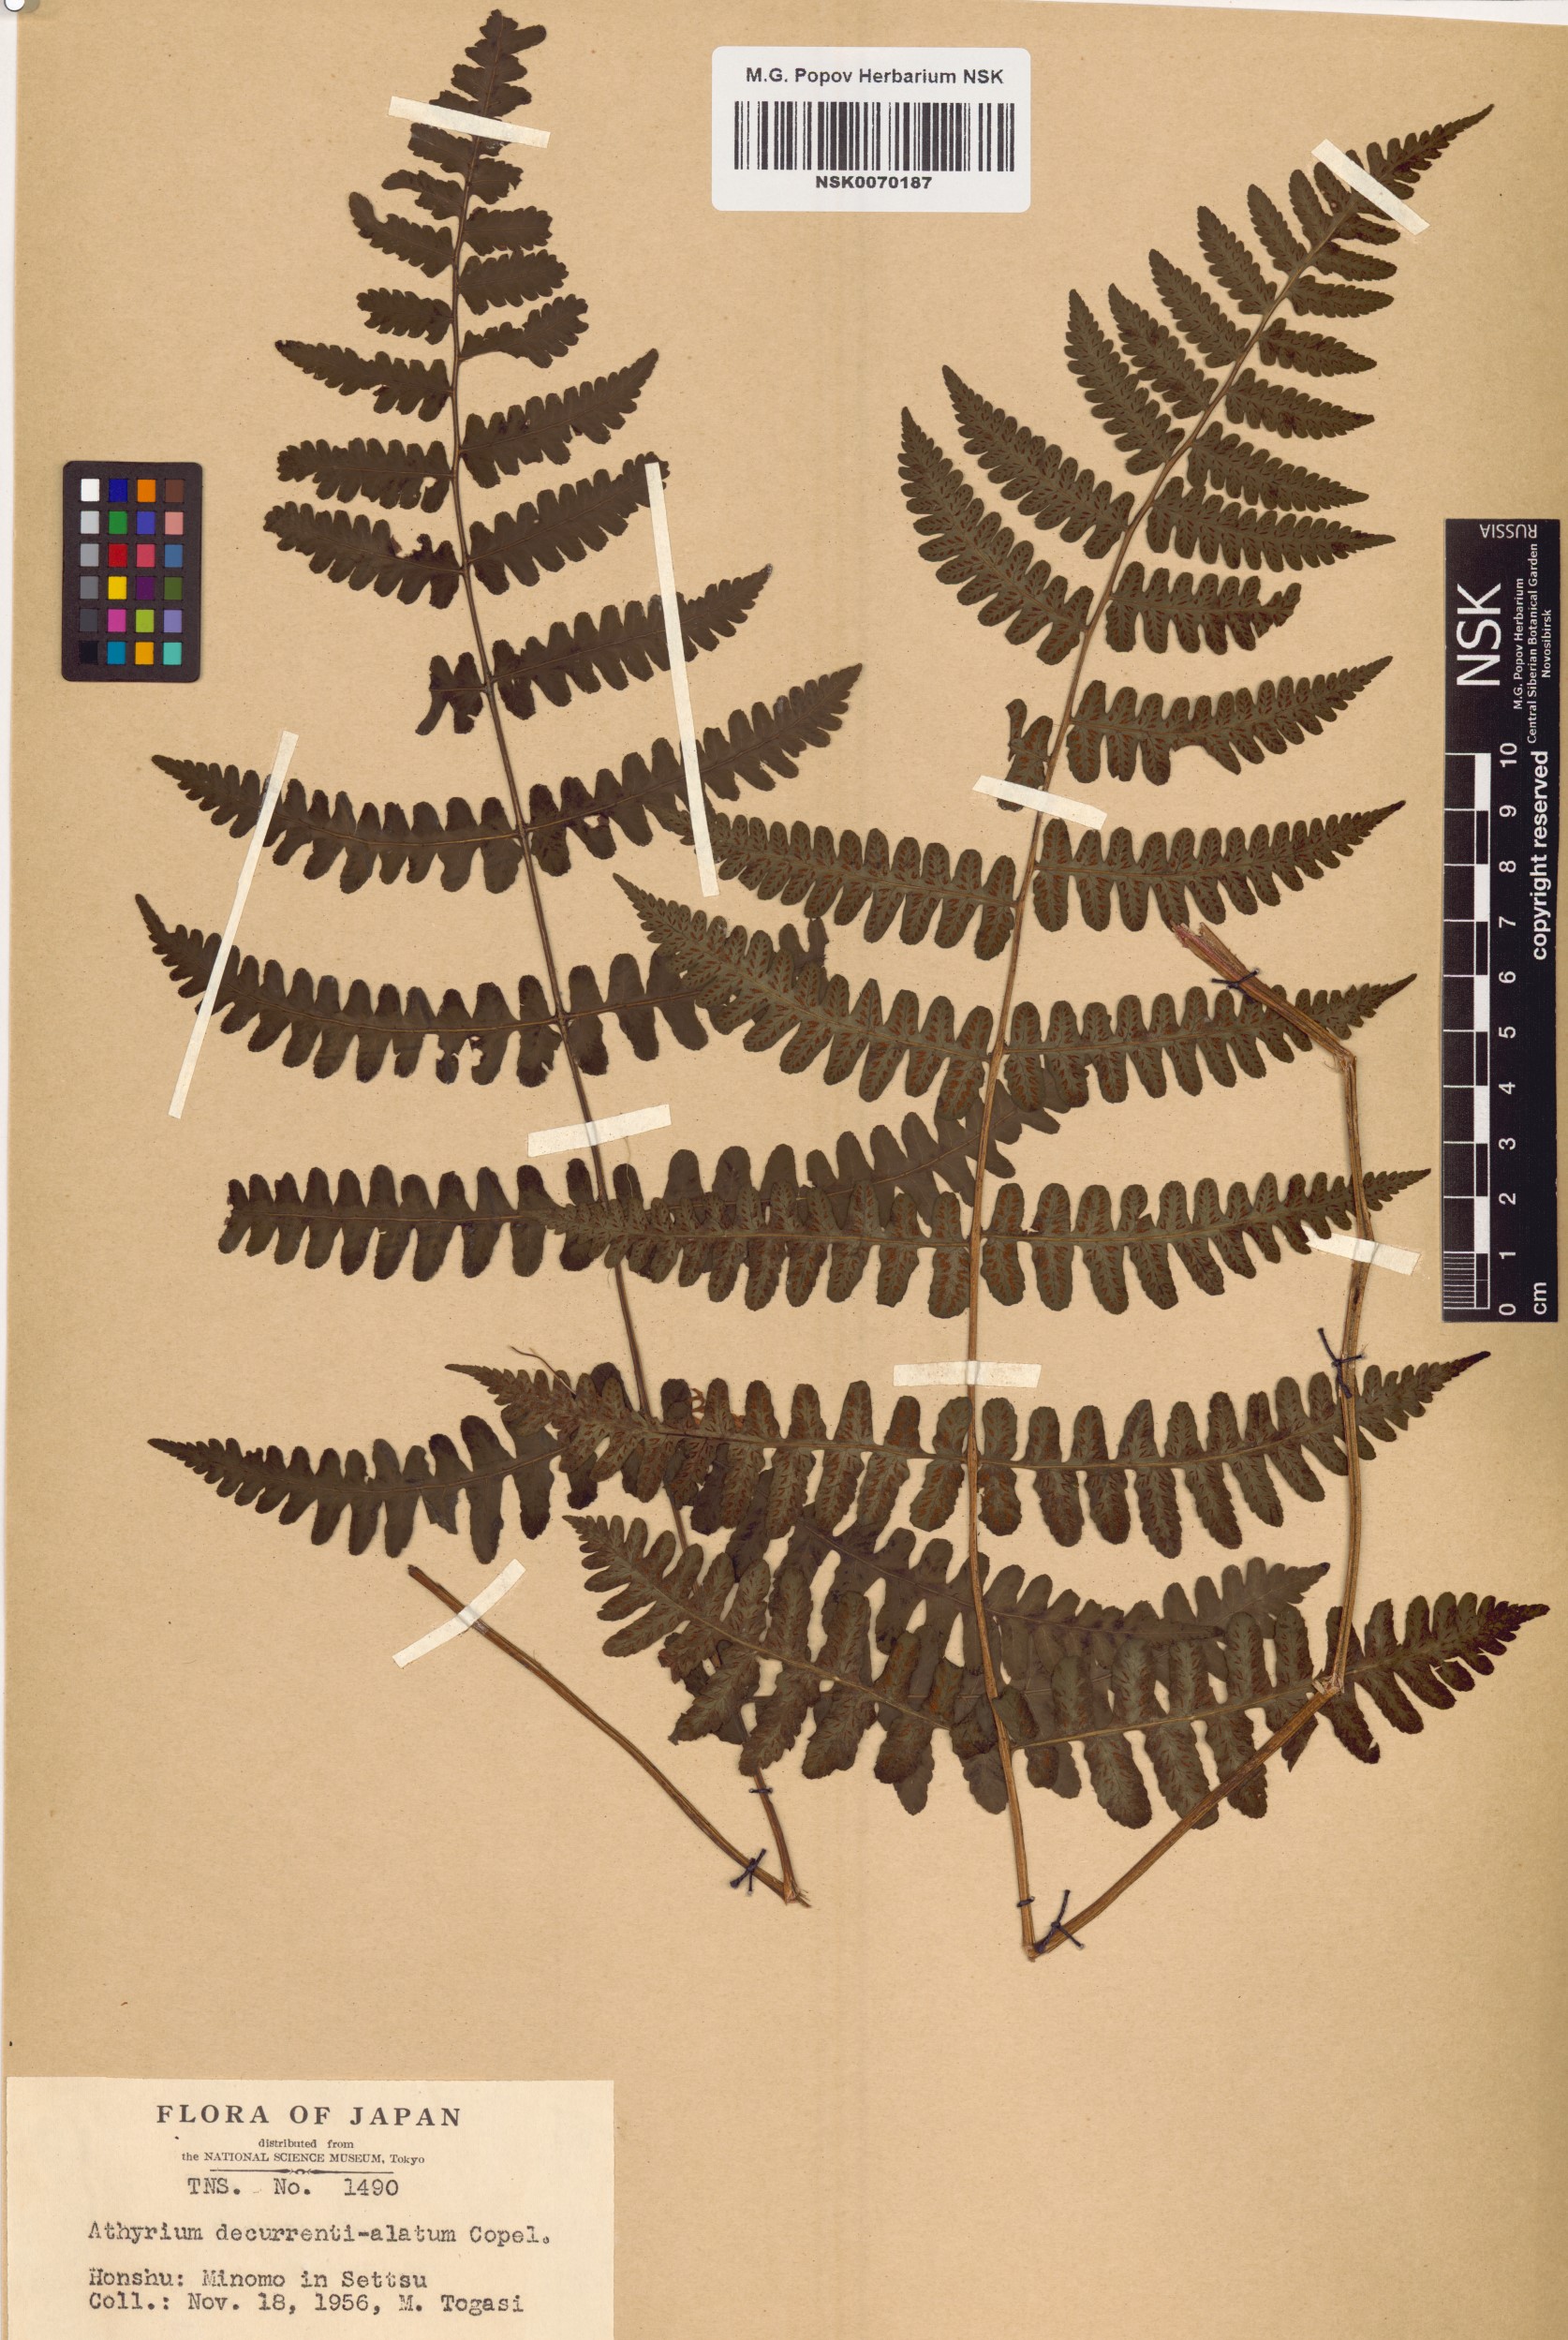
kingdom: Plantae
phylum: Tracheophyta
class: Polypodiopsida
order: Polypodiales
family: Athyriaceae
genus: Cornopteris
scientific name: Cornopteris decurrentialata
